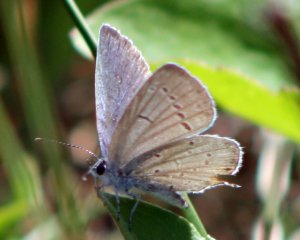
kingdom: Animalia
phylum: Arthropoda
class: Insecta
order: Lepidoptera
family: Lycaenidae
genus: Elkalyce
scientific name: Elkalyce comyntas
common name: Eastern Tailed-Blue
